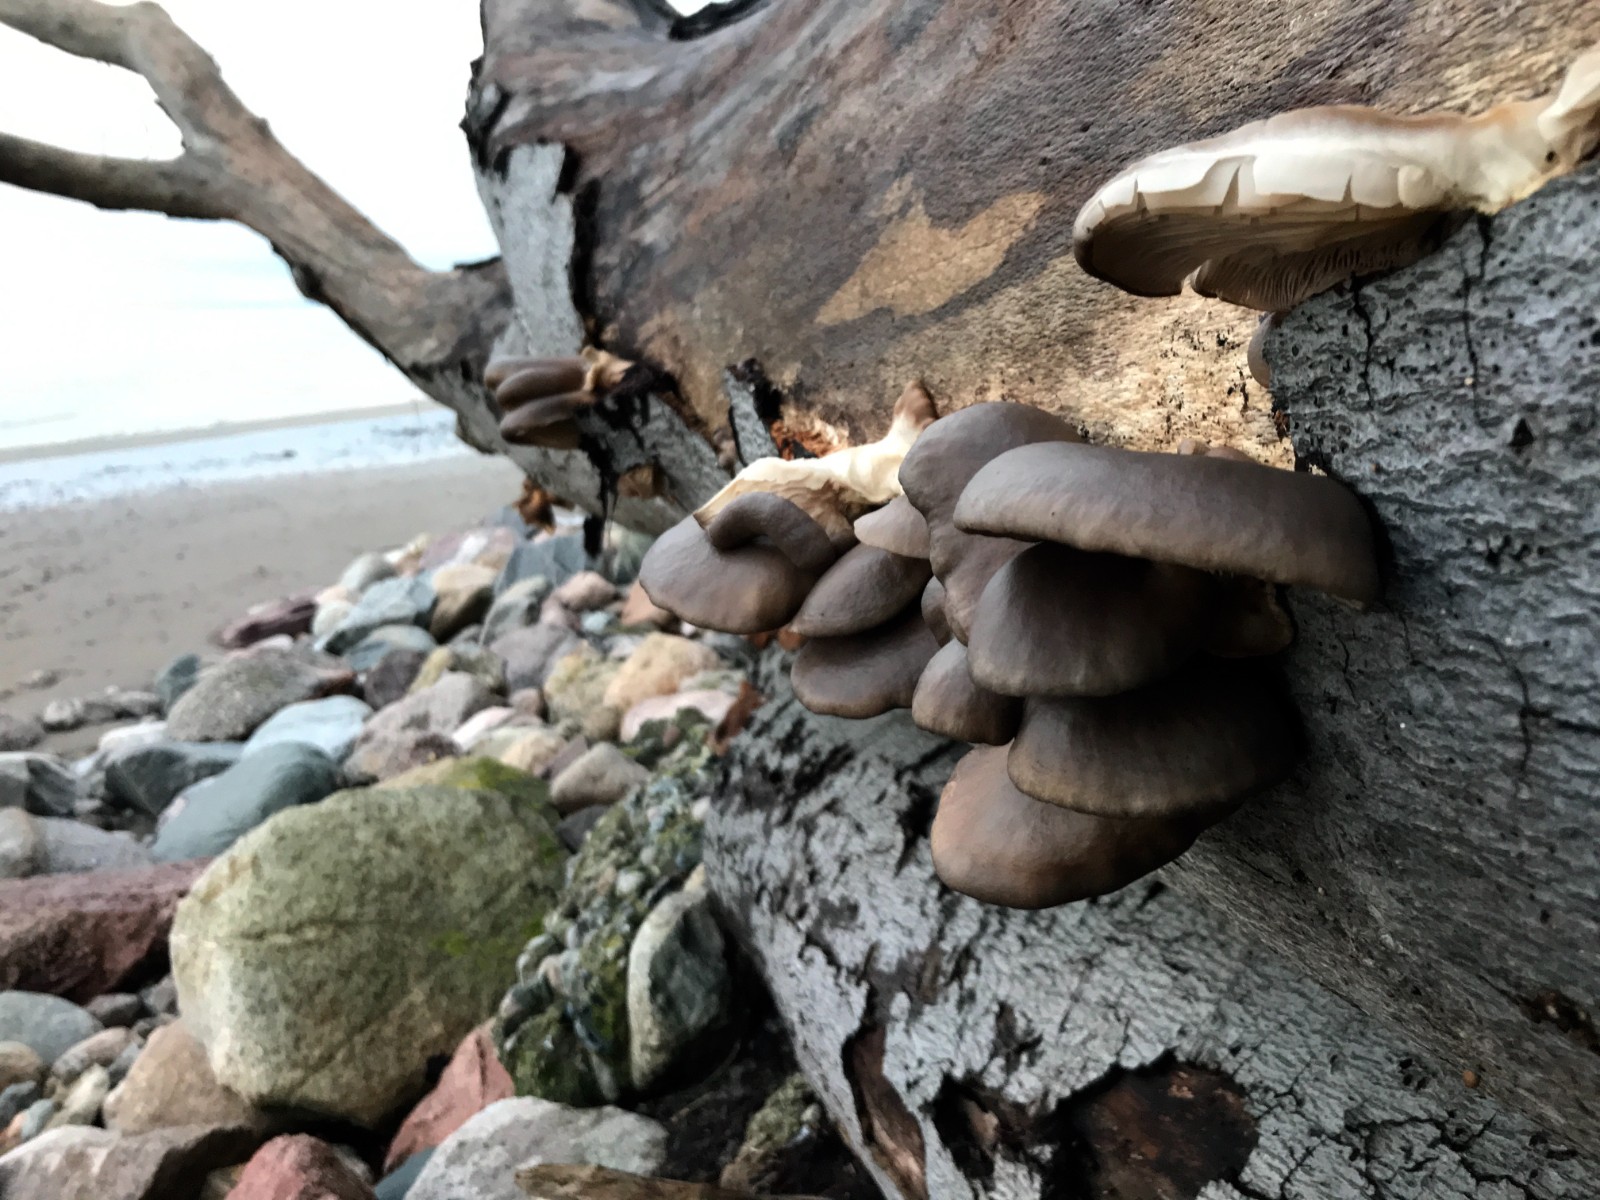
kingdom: Fungi
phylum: Basidiomycota
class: Agaricomycetes
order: Agaricales
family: Pleurotaceae
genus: Pleurotus
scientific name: Pleurotus ostreatus
